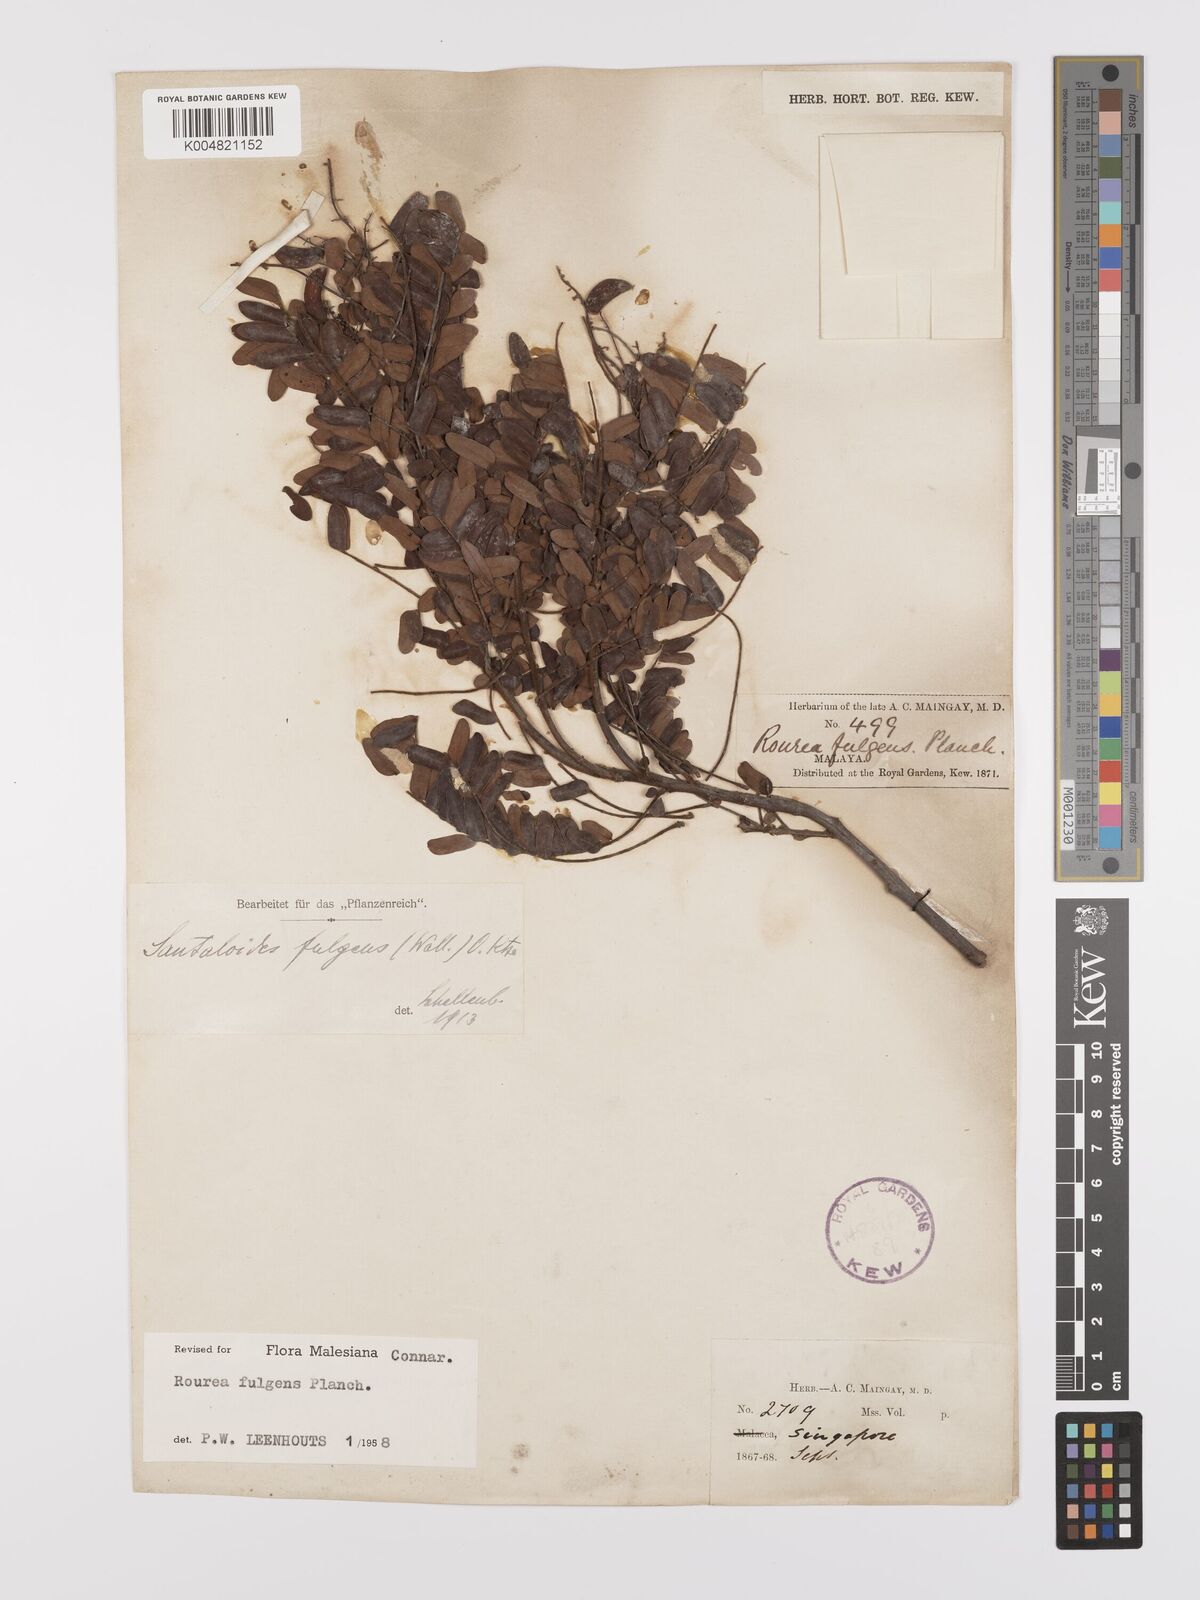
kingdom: Plantae
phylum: Tracheophyta
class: Magnoliopsida
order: Oxalidales
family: Connaraceae
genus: Rourea
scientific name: Rourea fulgens
